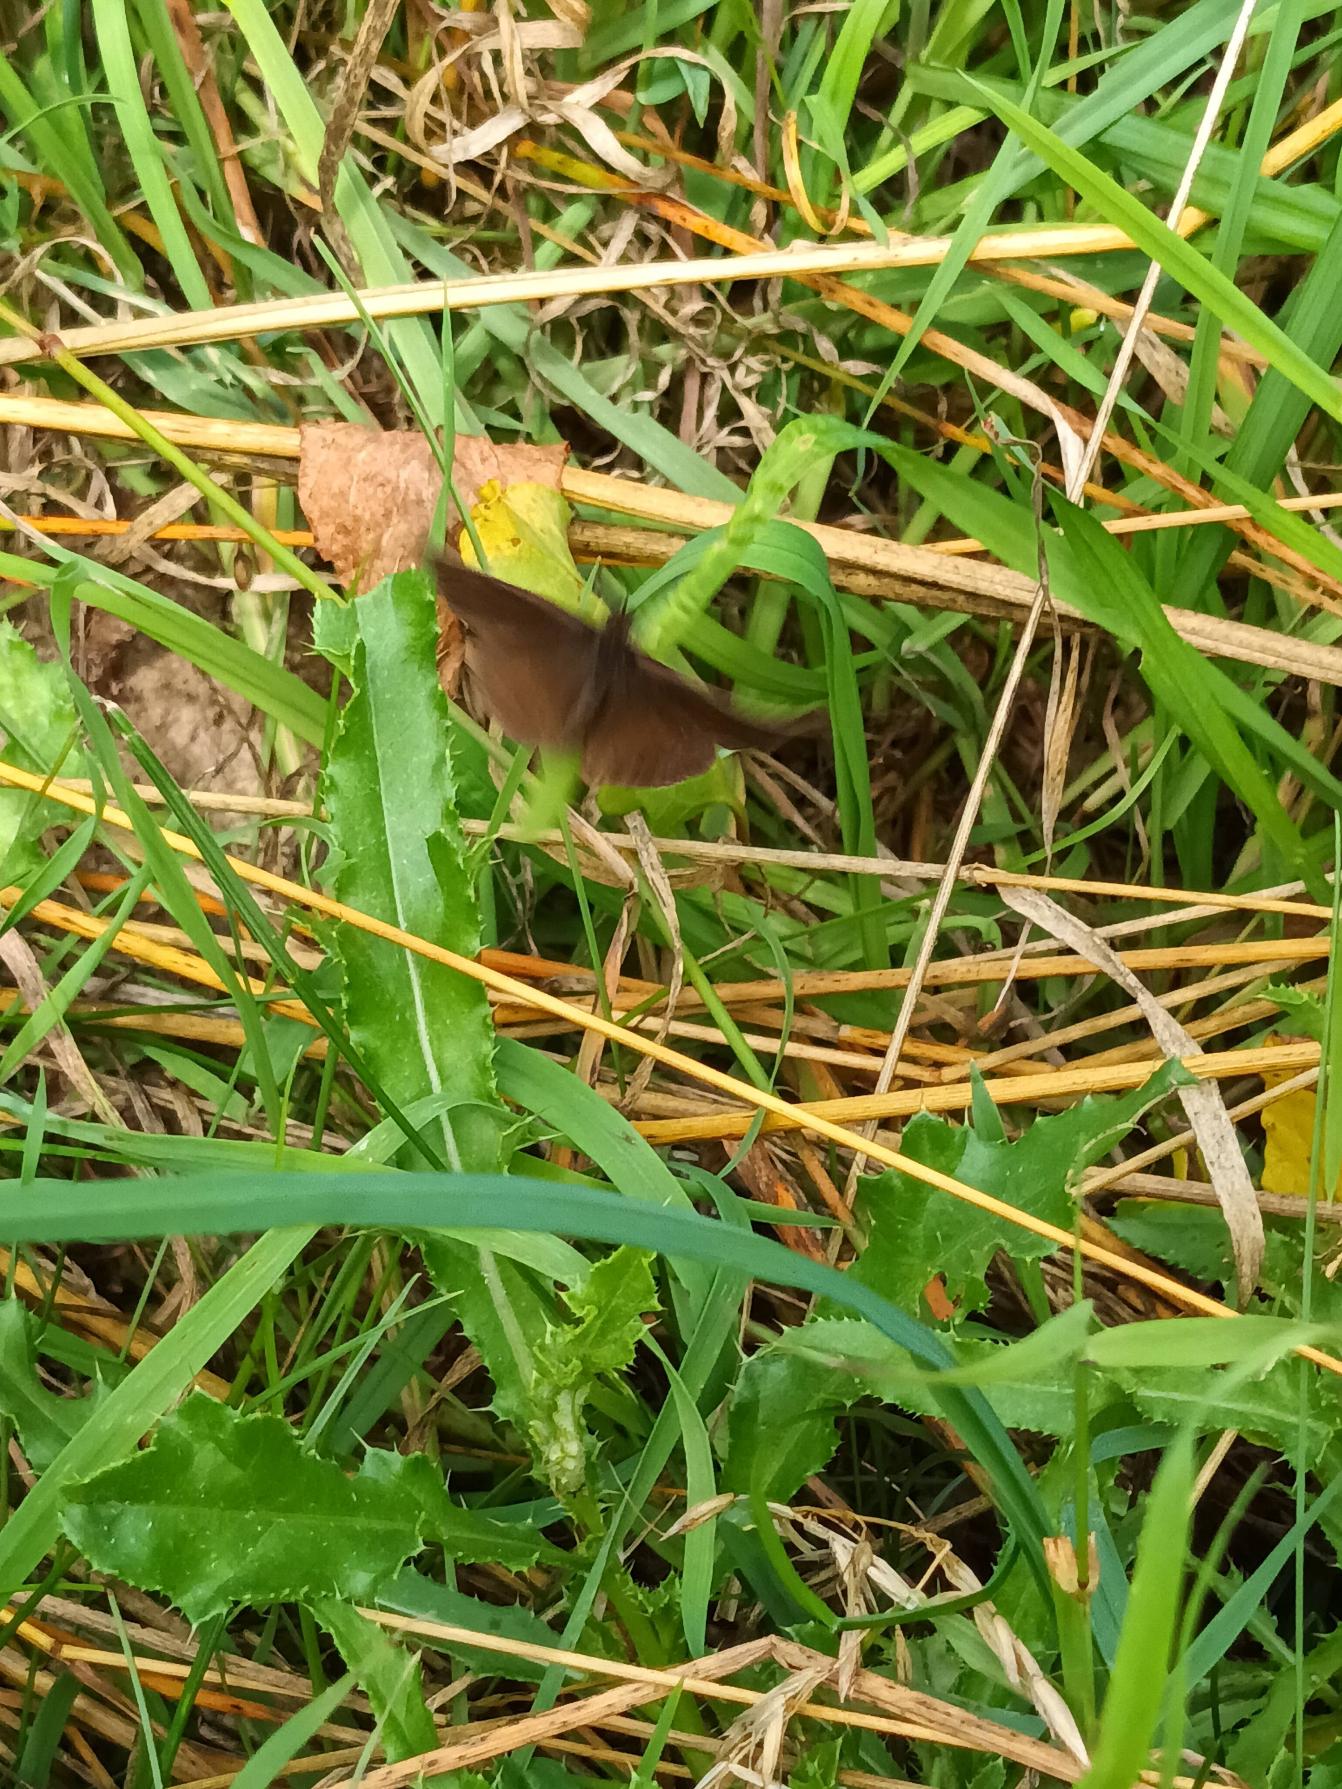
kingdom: Animalia
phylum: Arthropoda
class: Insecta
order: Lepidoptera
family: Nymphalidae
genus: Aphantopus
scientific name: Aphantopus hyperantus
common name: Engrandøje
